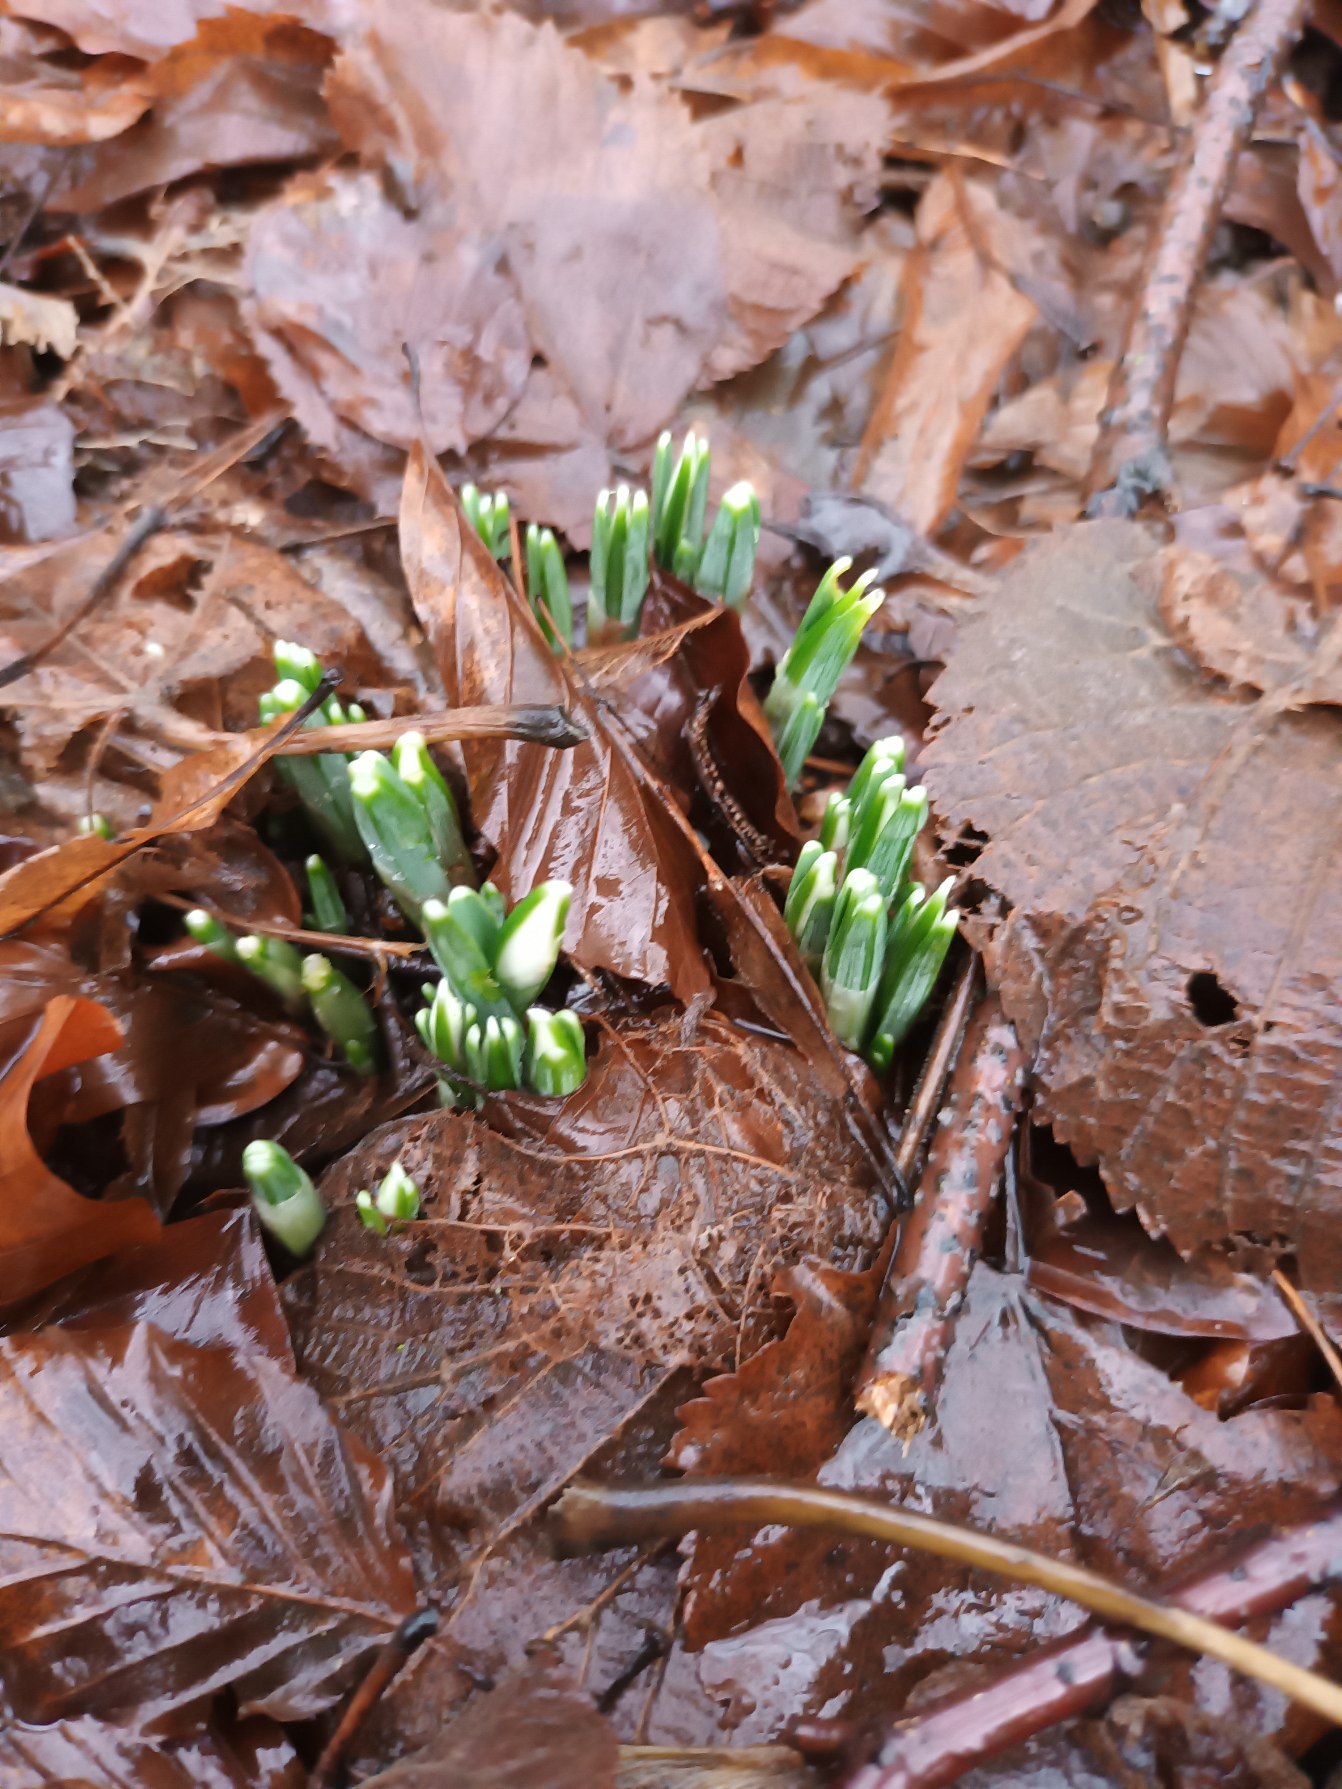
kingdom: Plantae
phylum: Tracheophyta
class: Liliopsida
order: Asparagales
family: Amaryllidaceae
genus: Galanthus
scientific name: Galanthus nivalis
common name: Vintergæk
